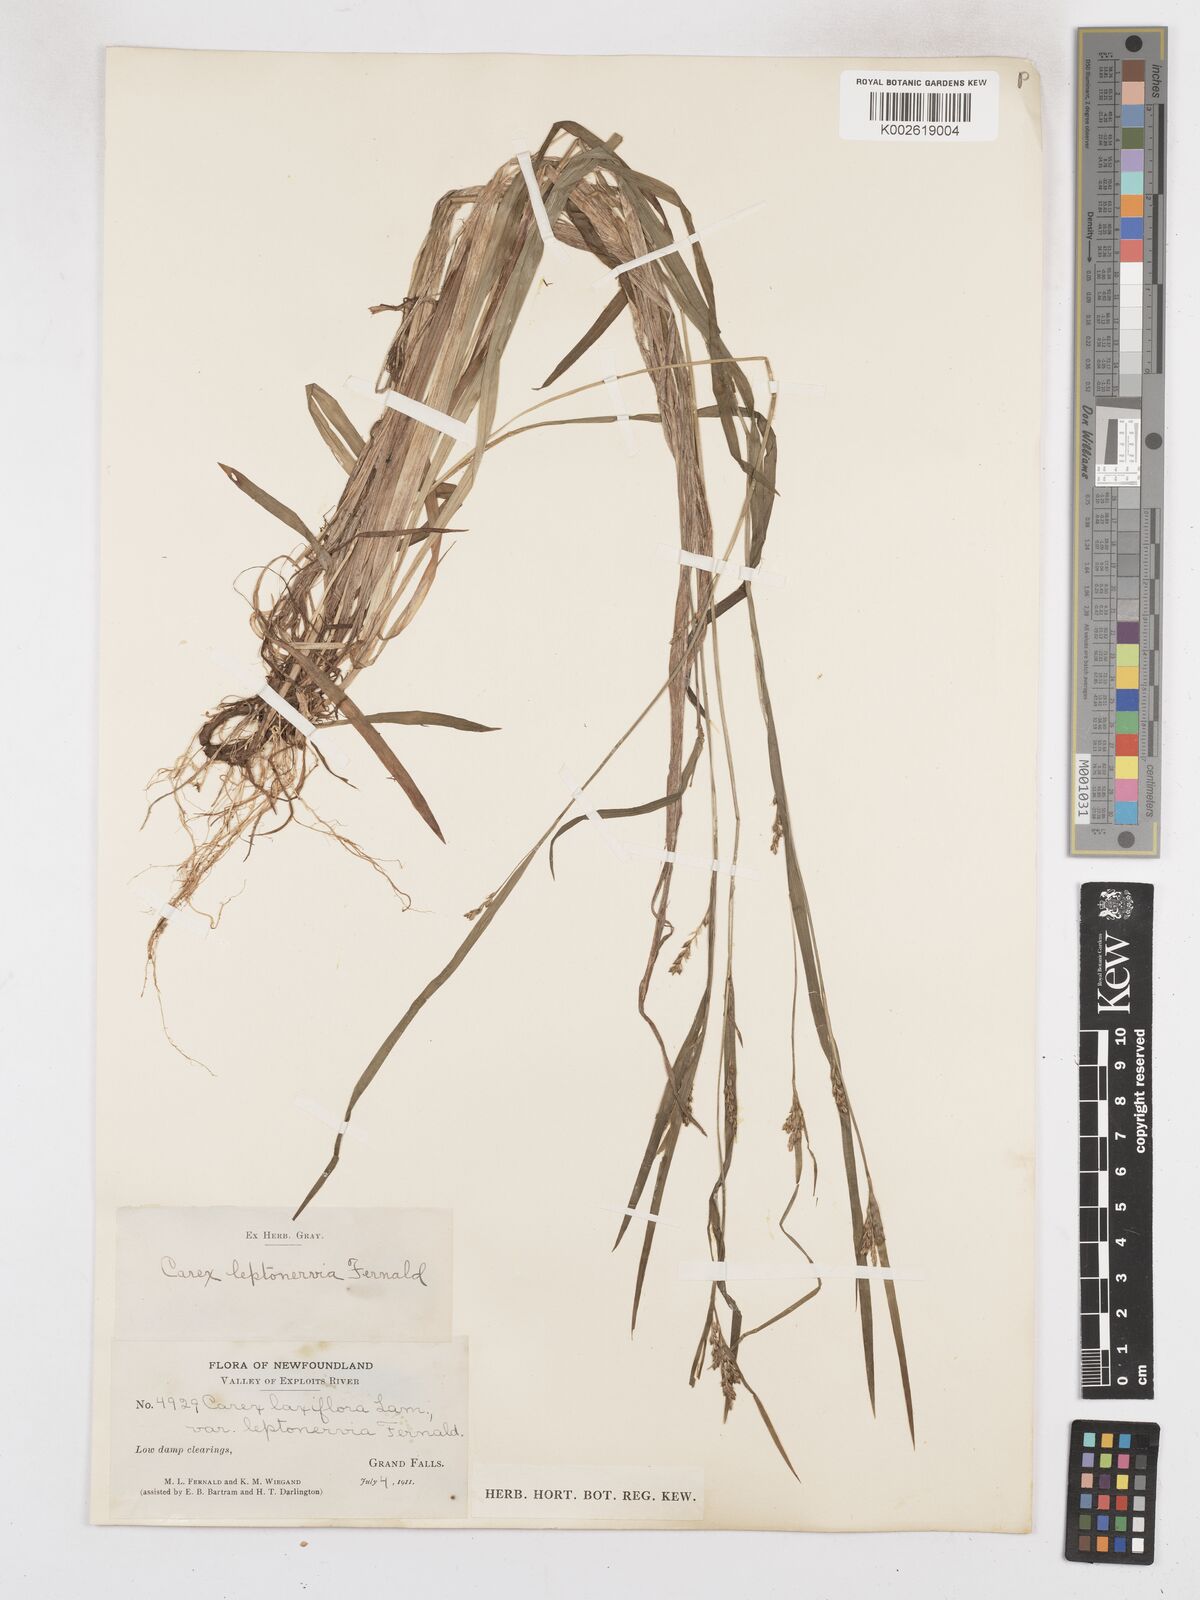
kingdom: Plantae
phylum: Tracheophyta
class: Liliopsida
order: Poales
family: Cyperaceae
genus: Carex
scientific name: Carex leptonervia
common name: Few-nerved wood sedge
